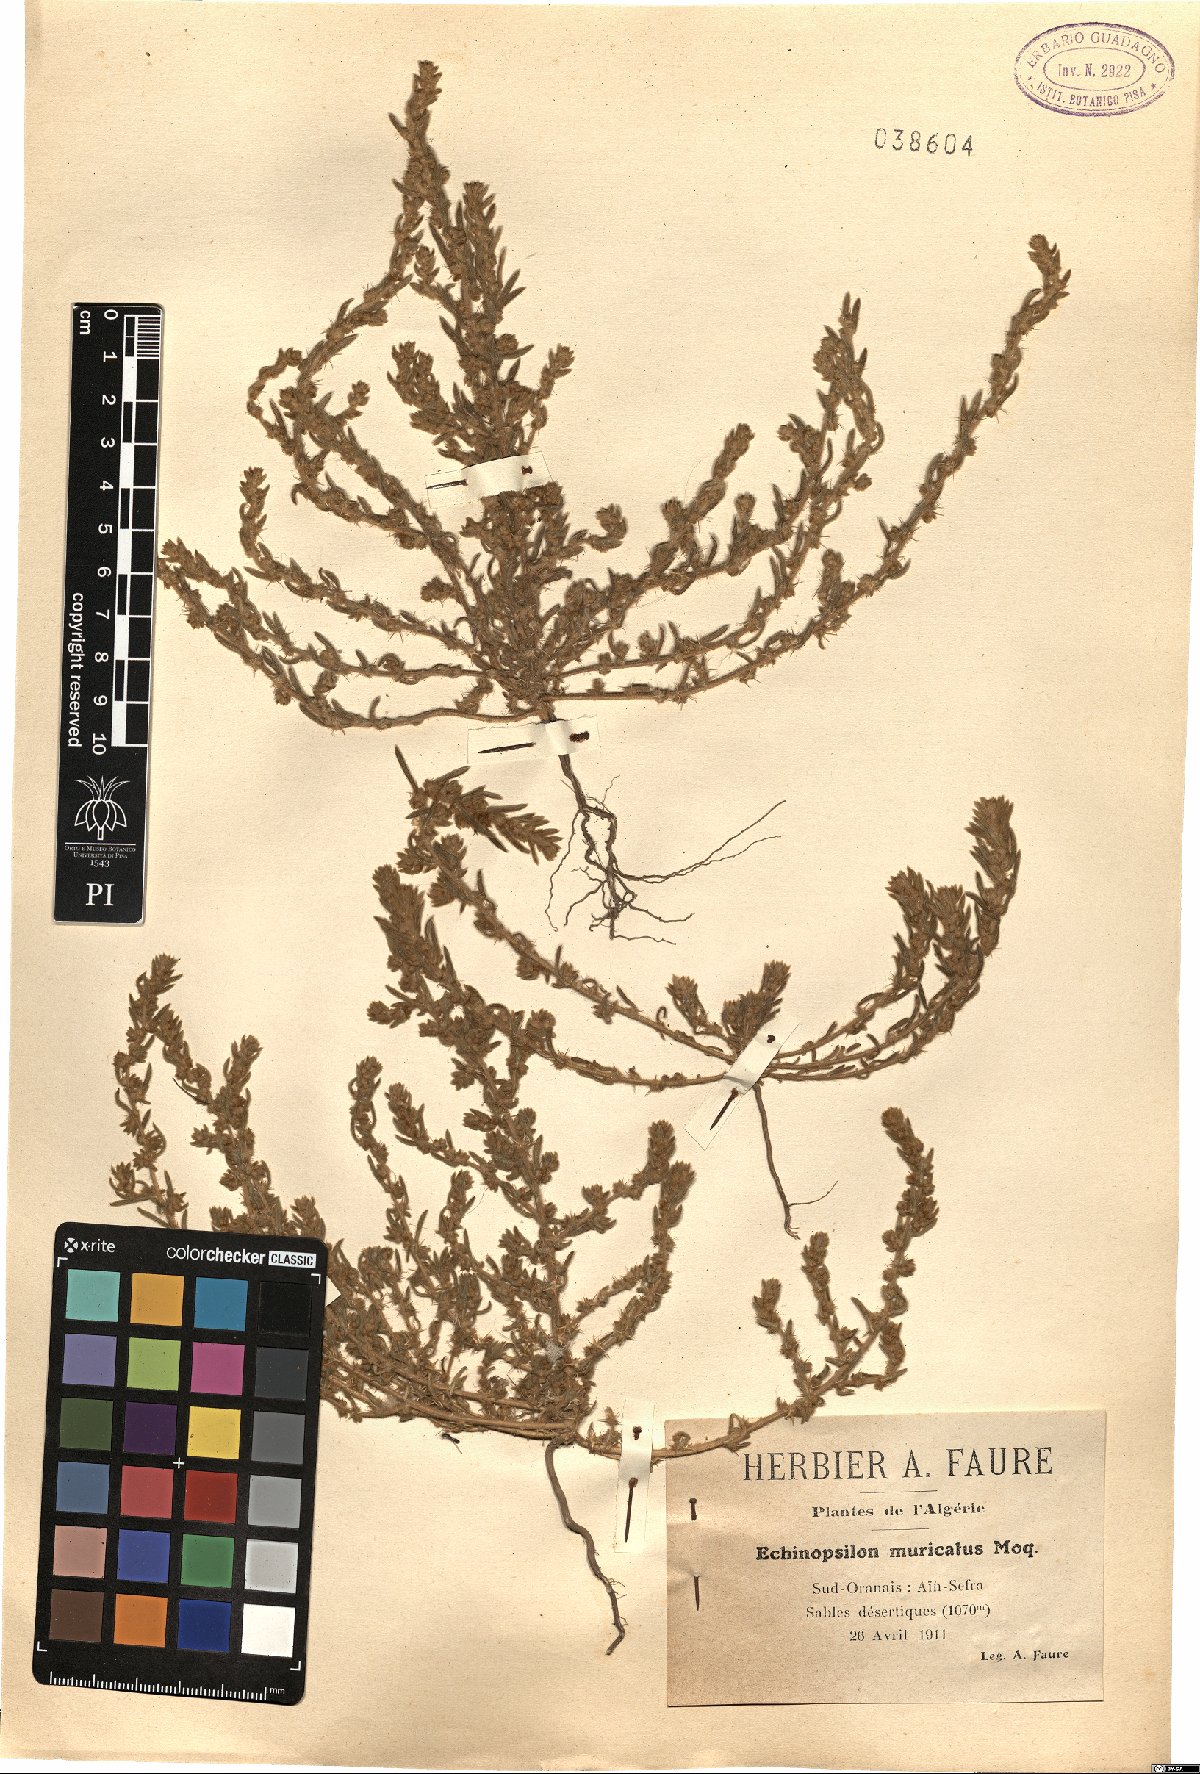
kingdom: Plantae
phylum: Tracheophyta
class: Magnoliopsida
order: Caryophyllales
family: Amaranthaceae
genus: Bassia
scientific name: Bassia muricata
